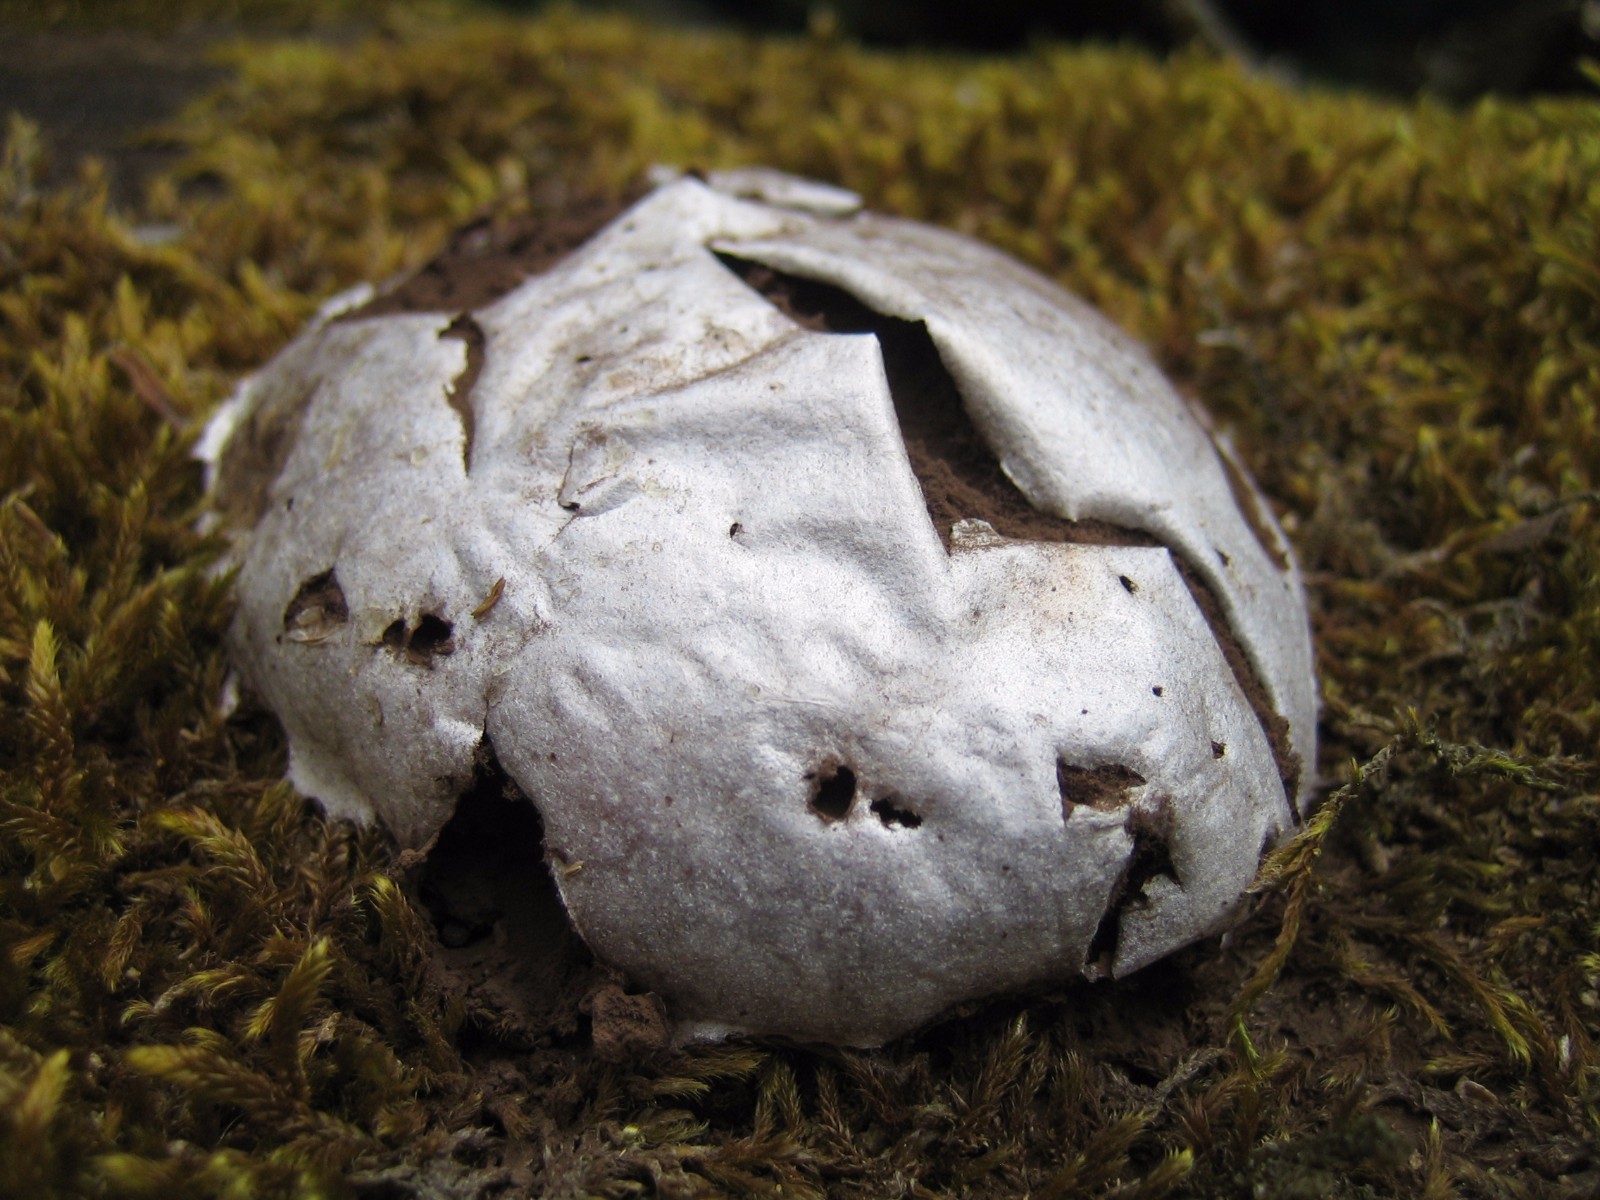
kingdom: Protozoa
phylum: Mycetozoa
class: Myxomycetes
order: Cribrariales
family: Tubiferaceae
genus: Reticularia
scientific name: Reticularia lycoperdon
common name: skinnende støvpude
